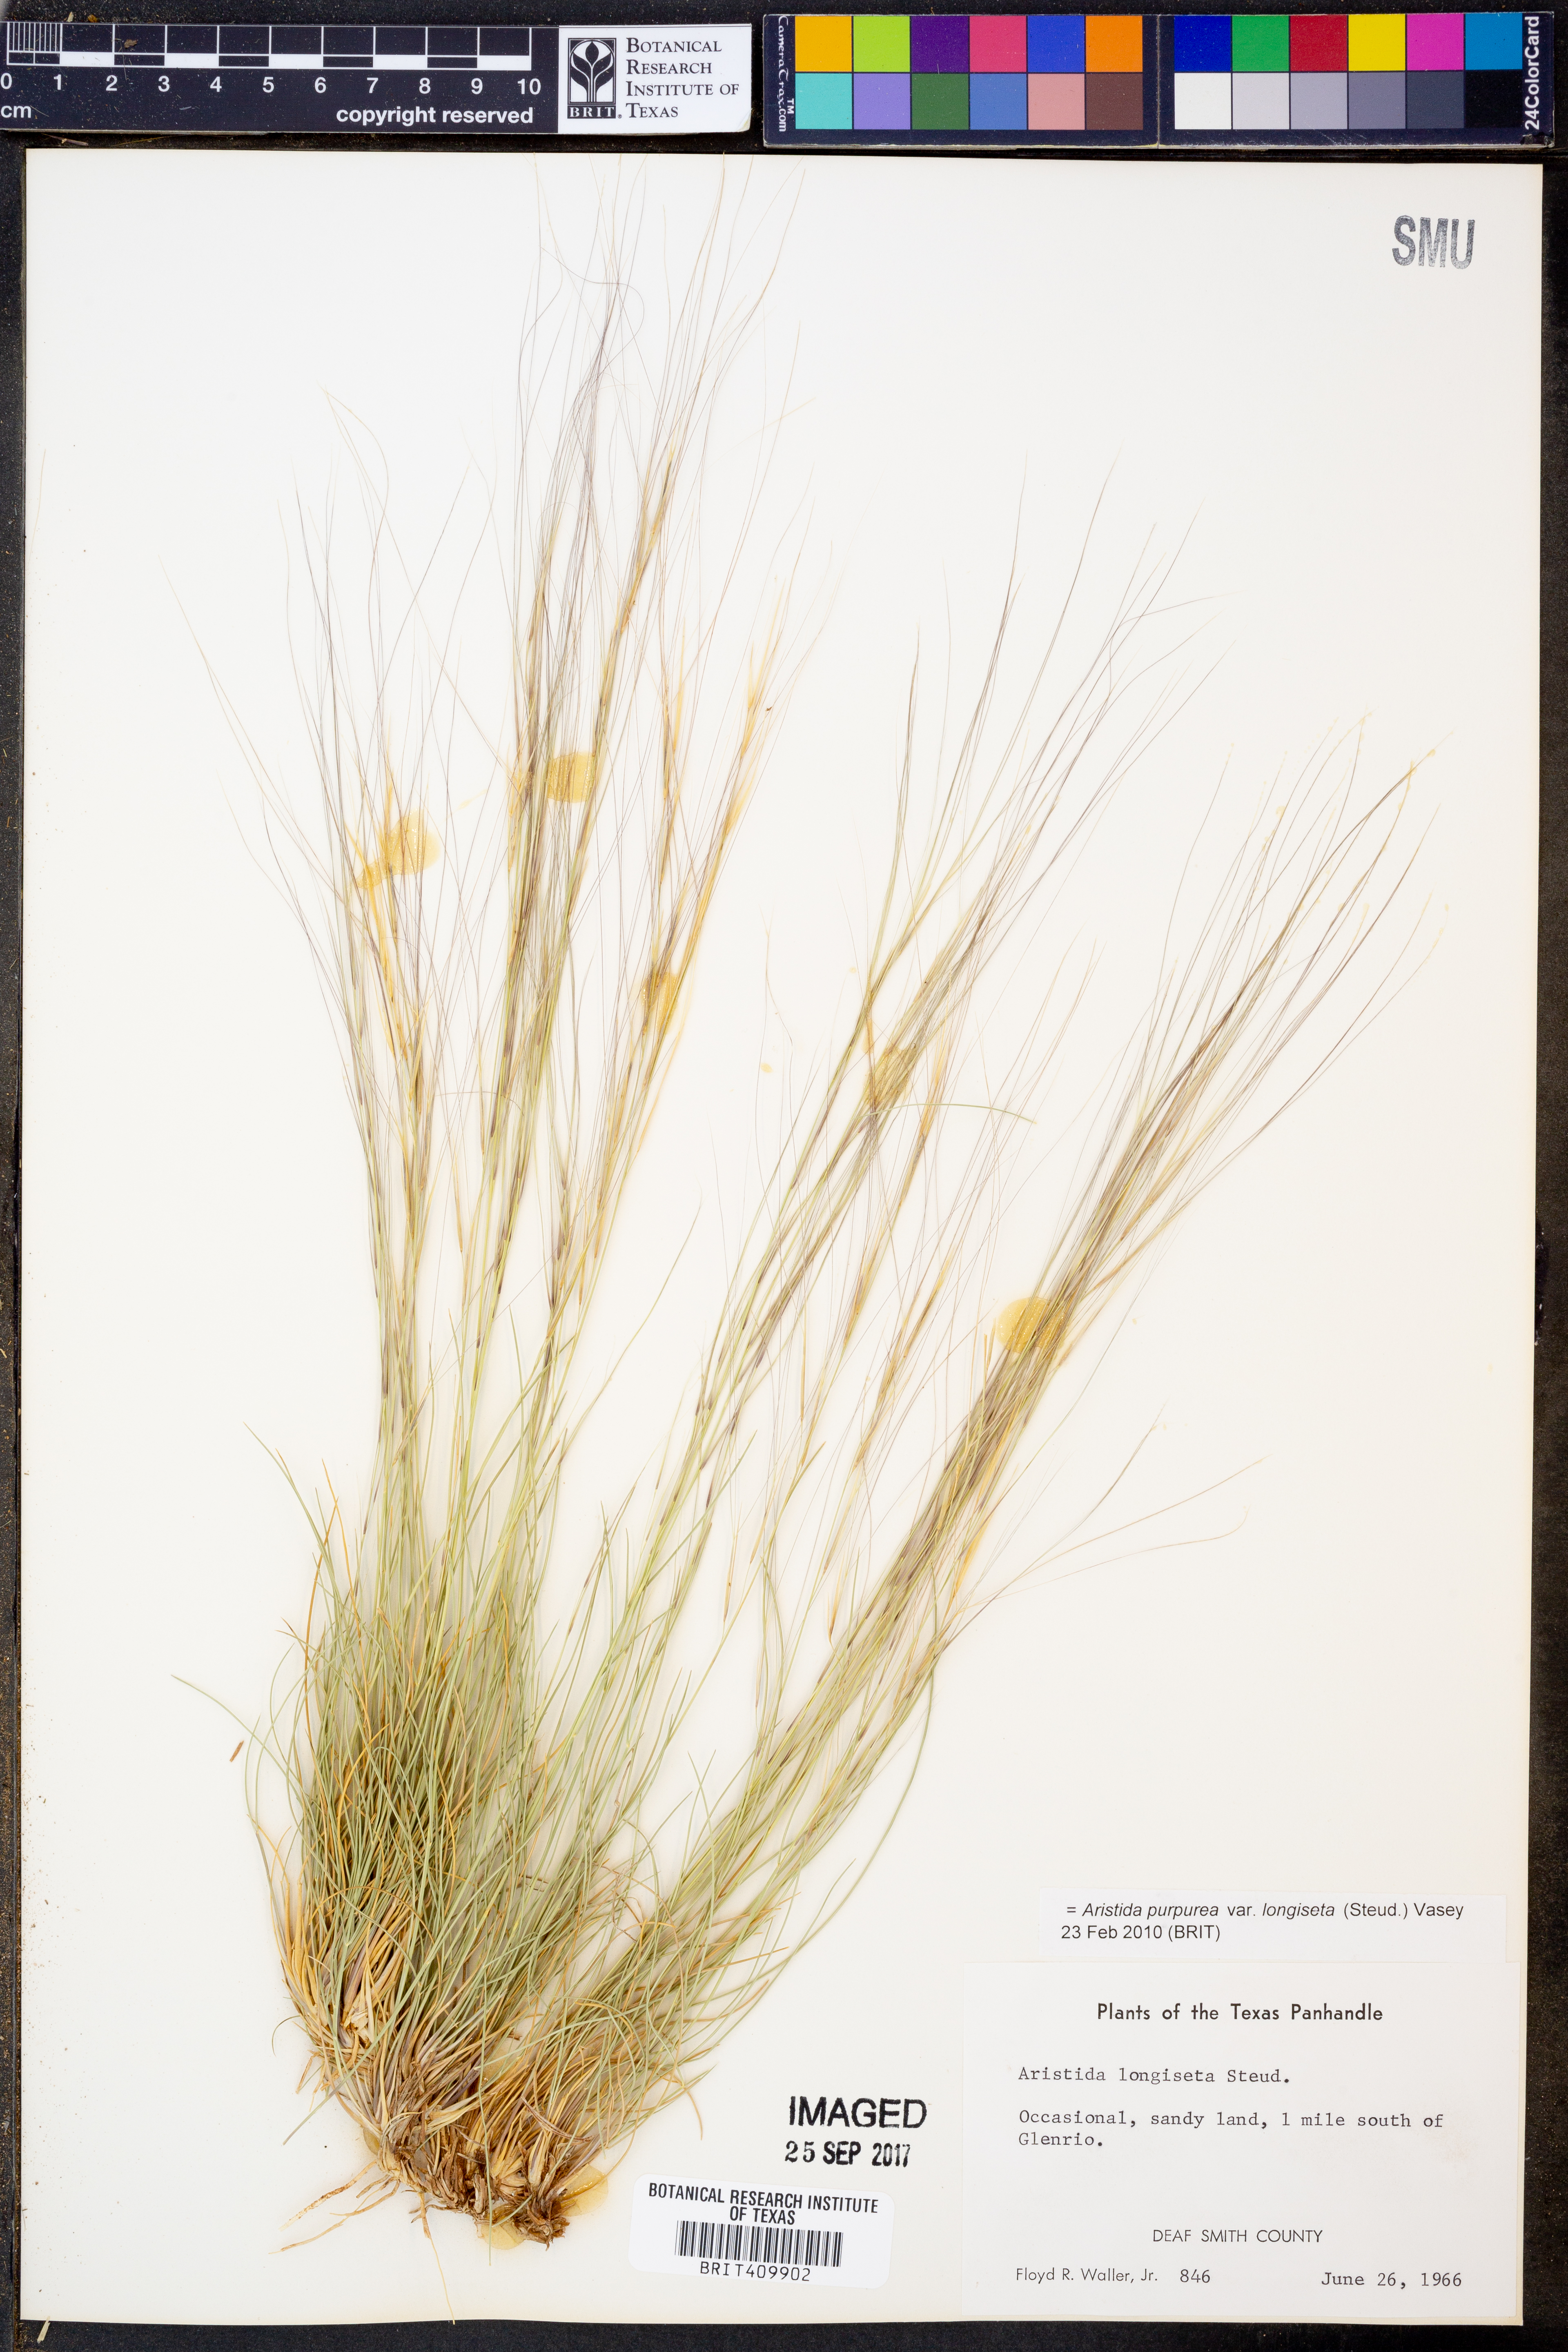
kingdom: Plantae
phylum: Tracheophyta
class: Liliopsida
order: Poales
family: Poaceae
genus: Aristida
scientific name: Aristida longiseta
